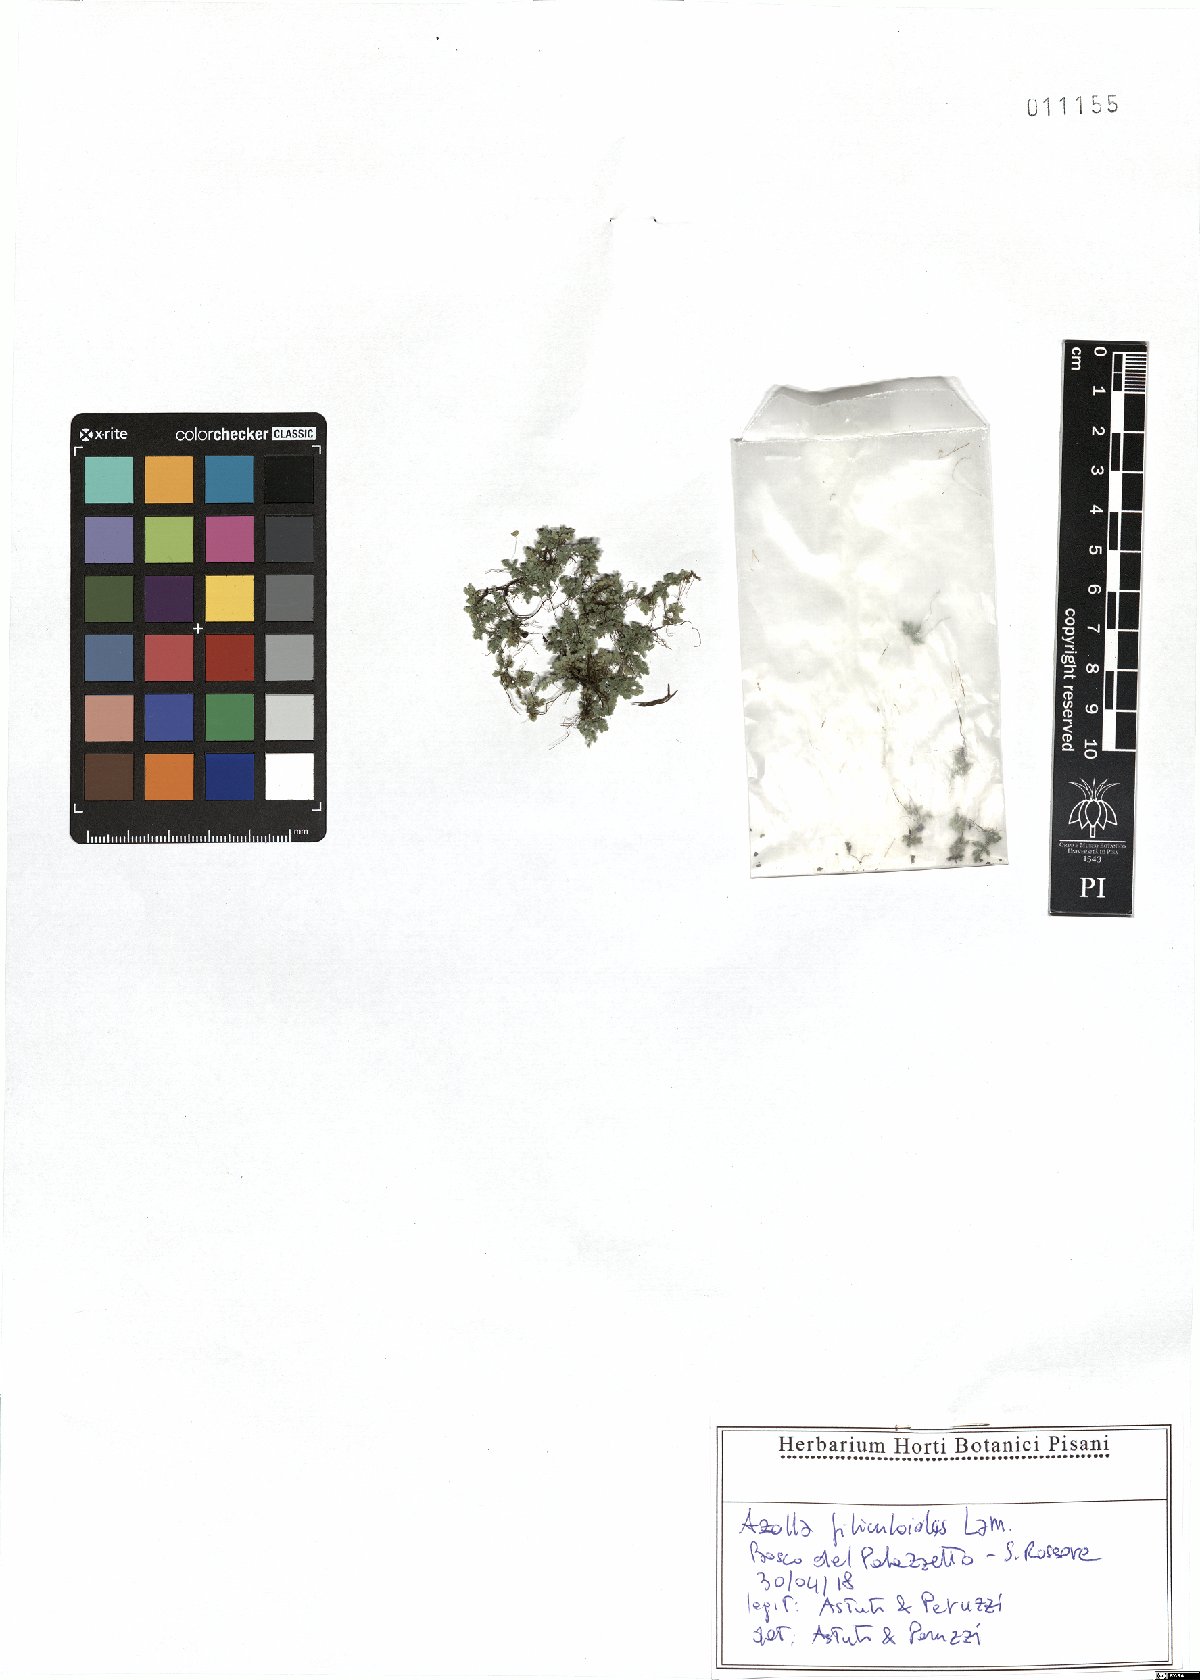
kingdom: Plantae
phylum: Tracheophyta
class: Polypodiopsida
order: Salviniales
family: Salviniaceae
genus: Azolla
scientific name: Azolla filiculoides
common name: Water fern
